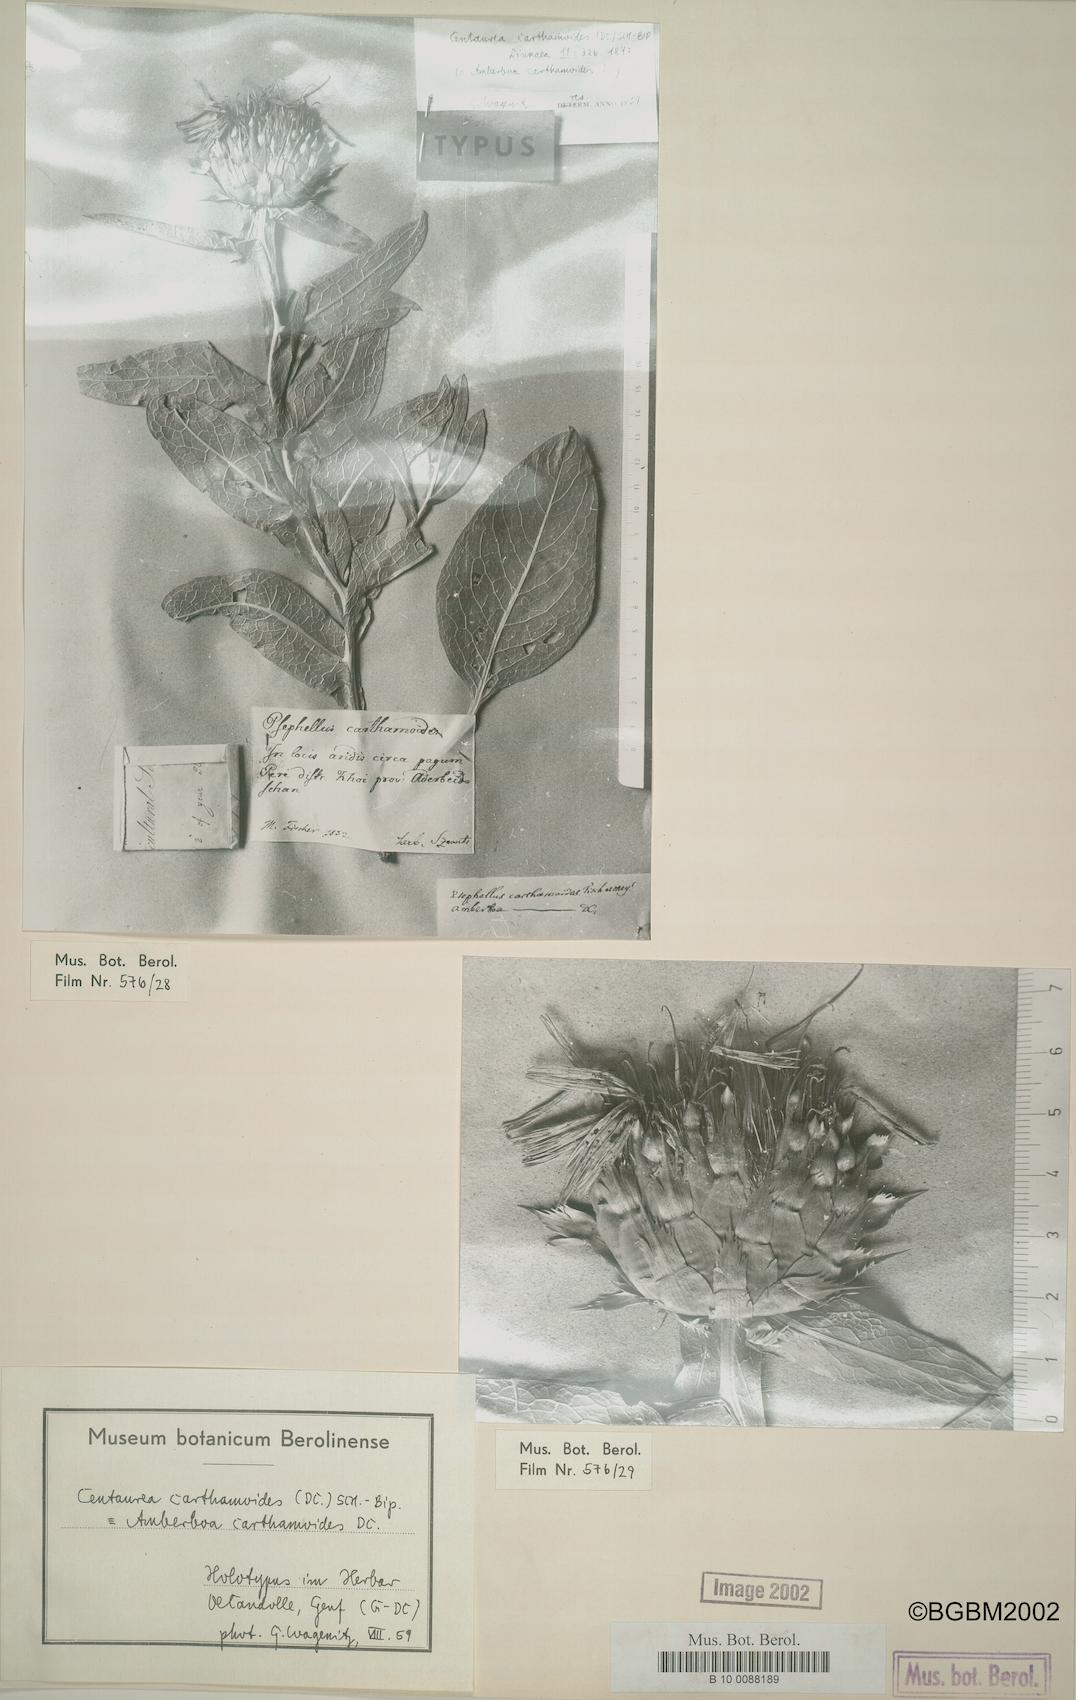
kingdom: Plantae
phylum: Tracheophyta
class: Magnoliopsida
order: Asterales
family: Asteraceae
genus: Leuzea
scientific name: Leuzea carthamoides
